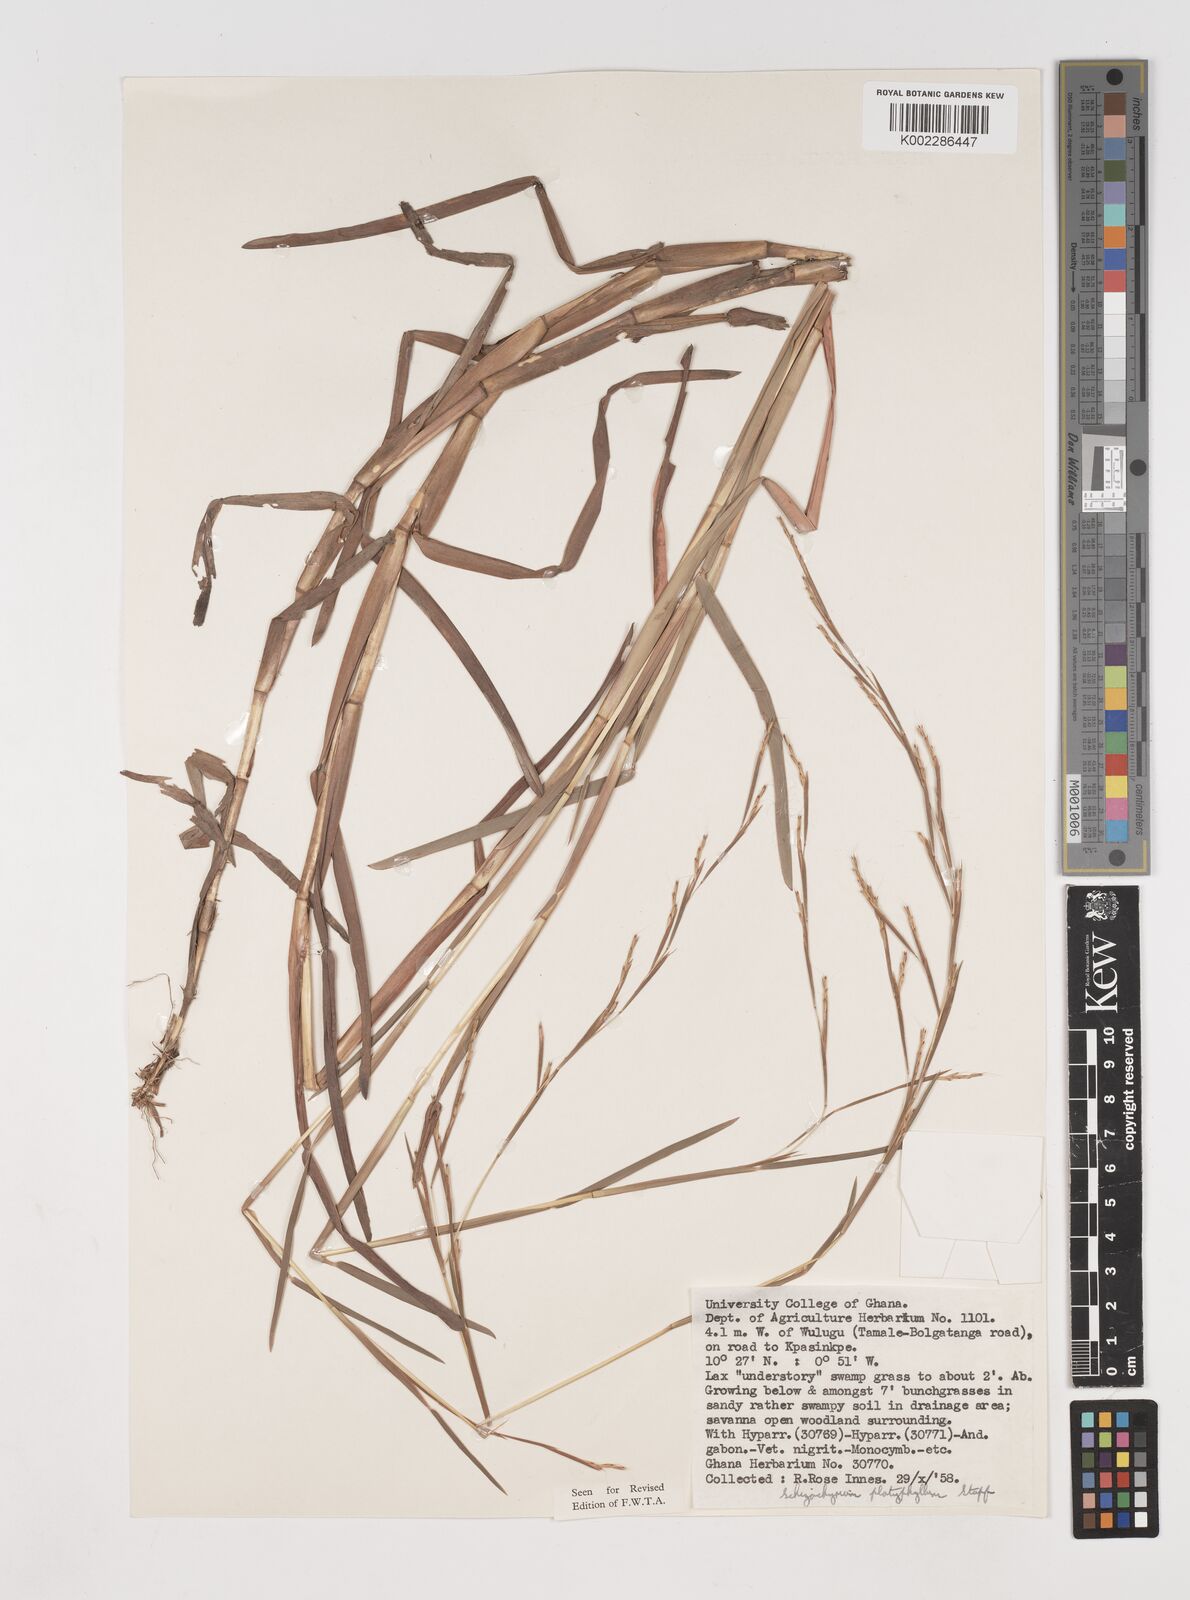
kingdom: Plantae
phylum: Tracheophyta
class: Liliopsida
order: Poales
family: Poaceae
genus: Schizachyrium
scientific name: Schizachyrium platyphyllum
